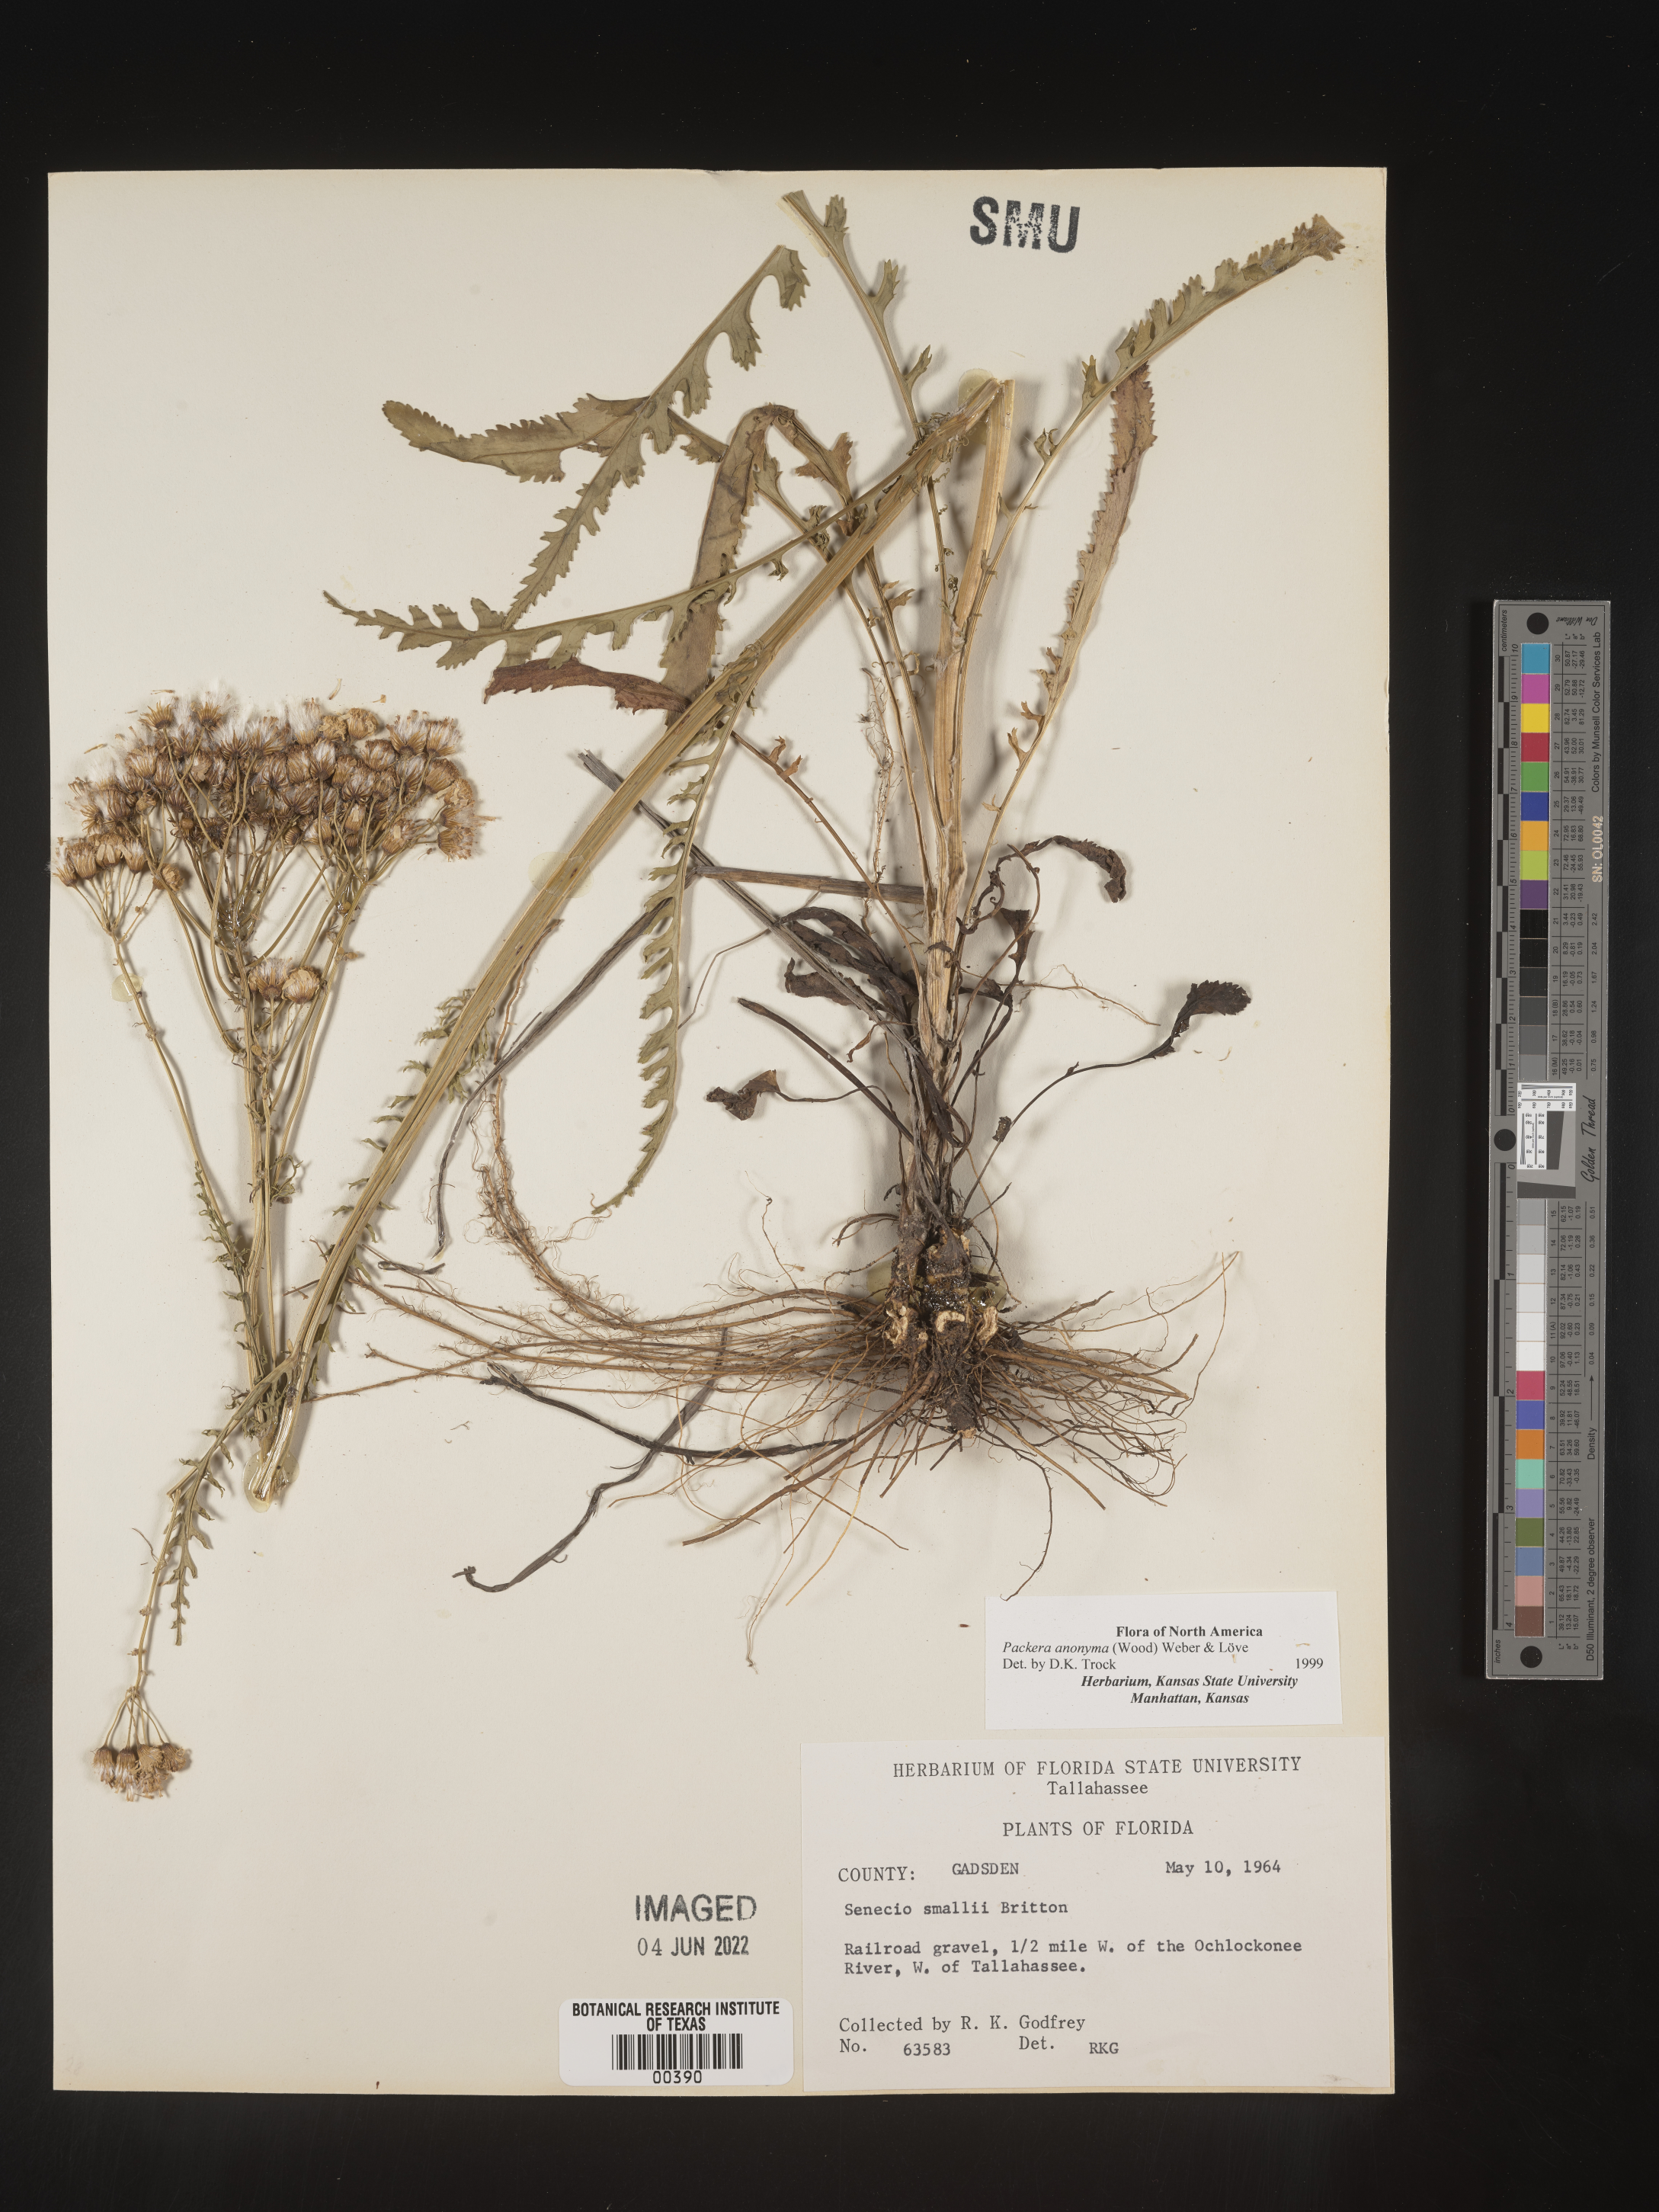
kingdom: Plantae
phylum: Tracheophyta
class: Magnoliopsida
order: Asterales
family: Asteraceae
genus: Packera
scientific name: Packera anonyma
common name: Small ragwort
